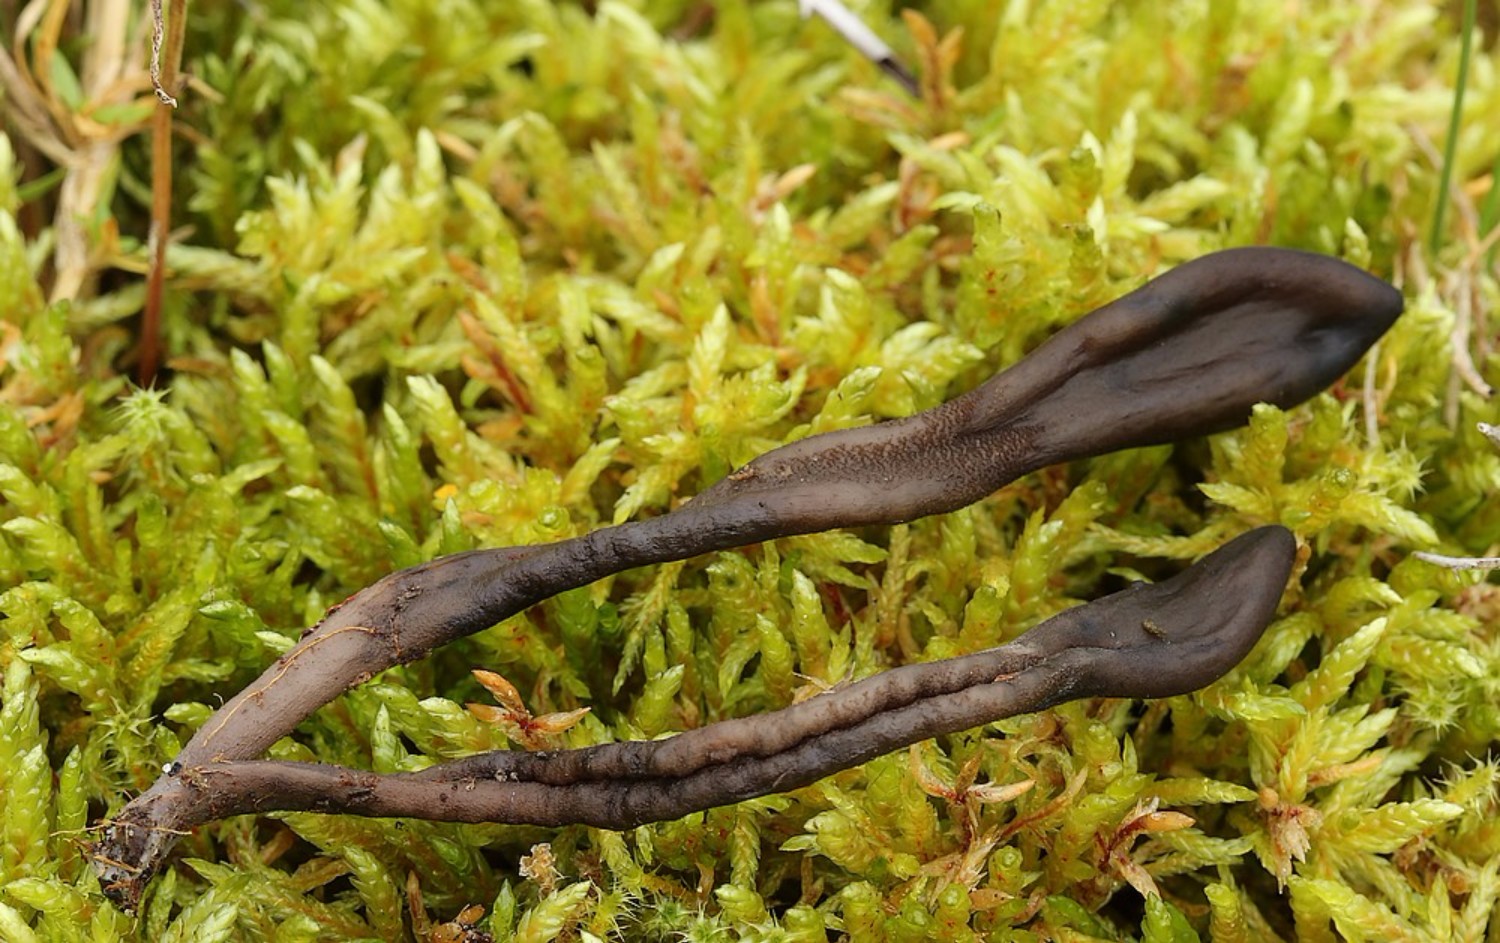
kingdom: Fungi
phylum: Ascomycota
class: Geoglossomycetes
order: Geoglossales
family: Geoglossaceae
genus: Hemileucoglossum
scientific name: Hemileucoglossum elongatum
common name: småsporet jordtunge
